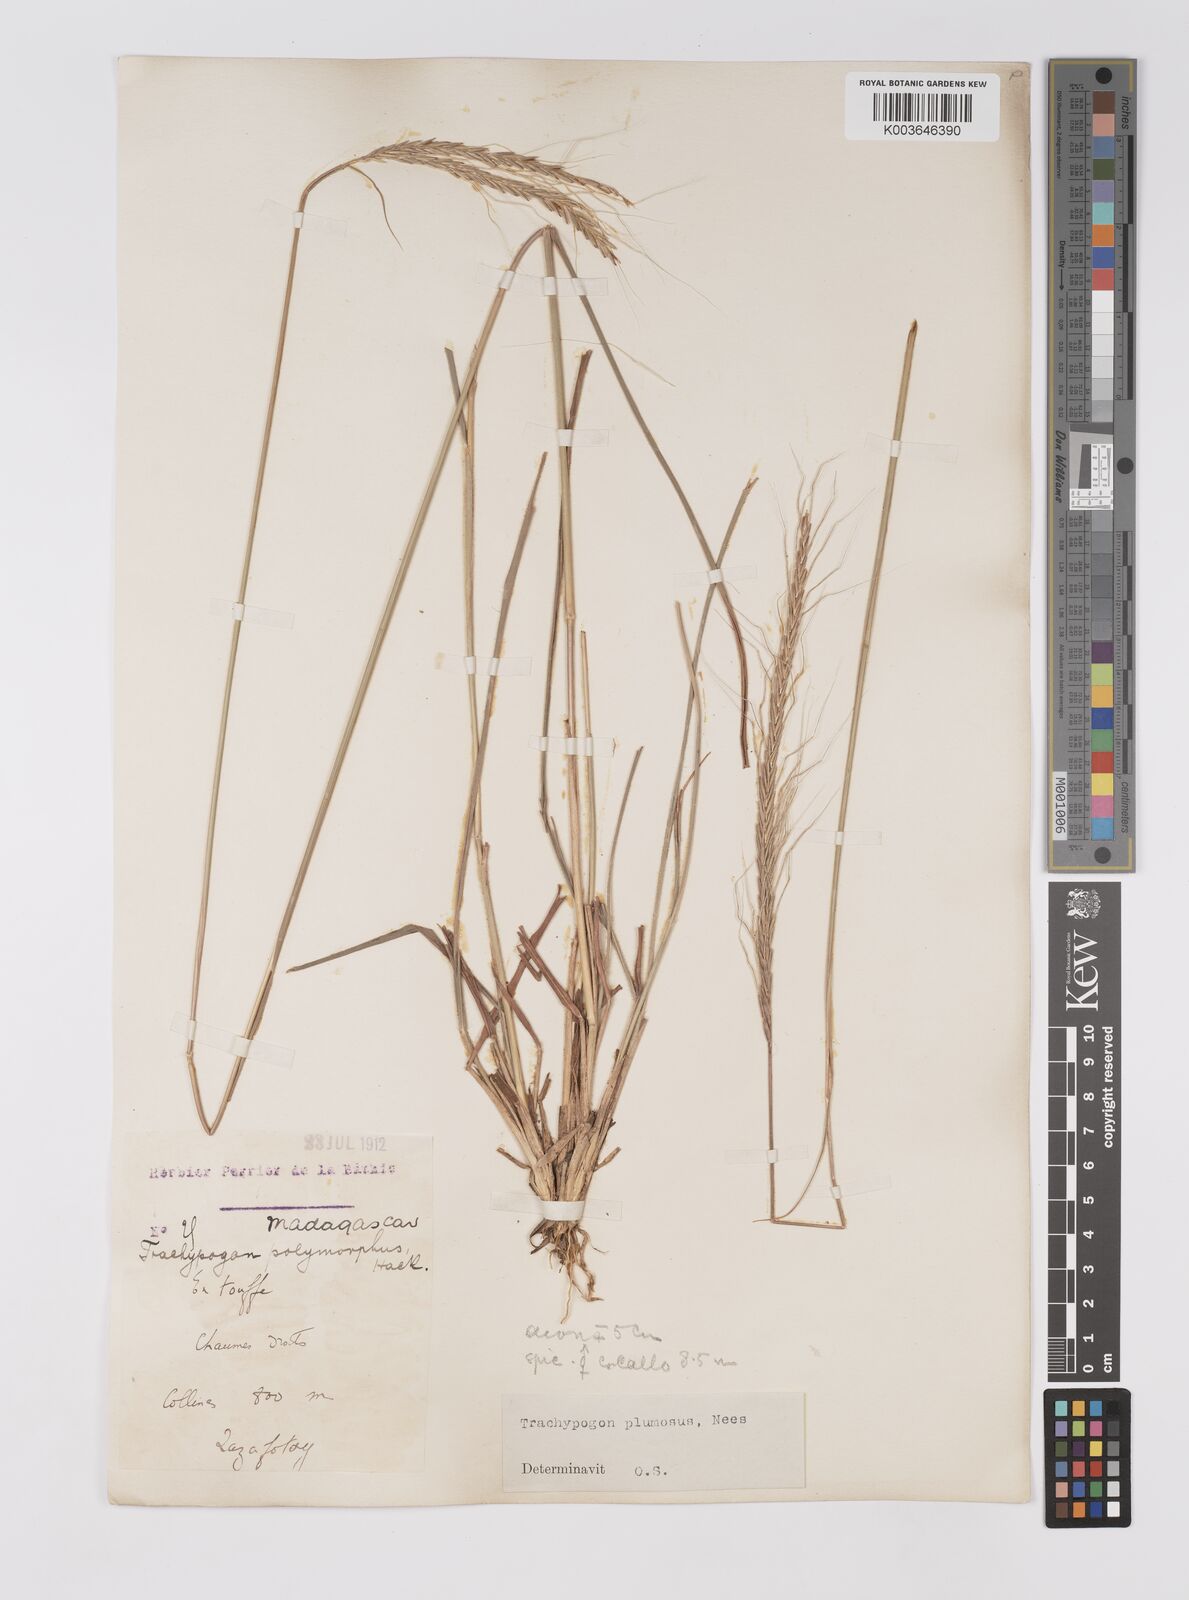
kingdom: Plantae
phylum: Tracheophyta
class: Liliopsida
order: Poales
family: Poaceae
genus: Trachypogon
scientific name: Trachypogon spicatus
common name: Crinkle-awn
